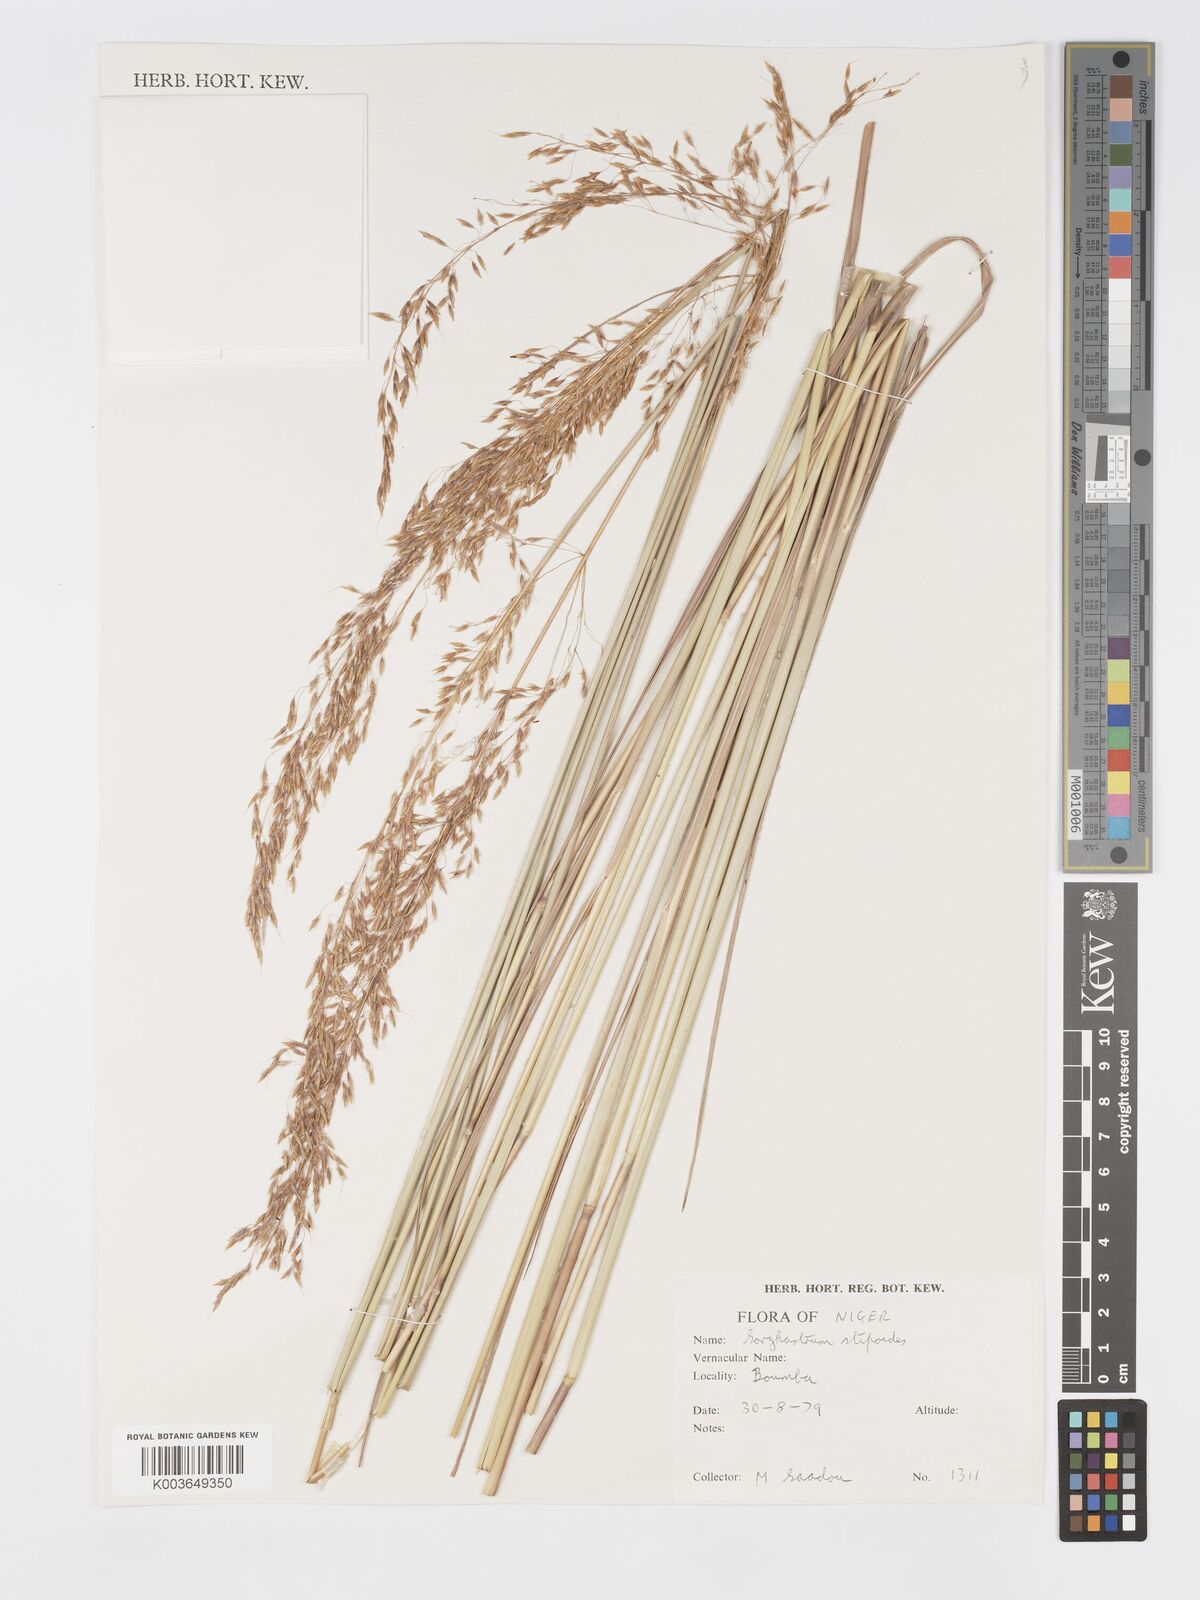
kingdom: Plantae
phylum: Tracheophyta
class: Liliopsida
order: Poales
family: Poaceae
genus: Sorghastrum
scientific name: Sorghastrum stipoides
